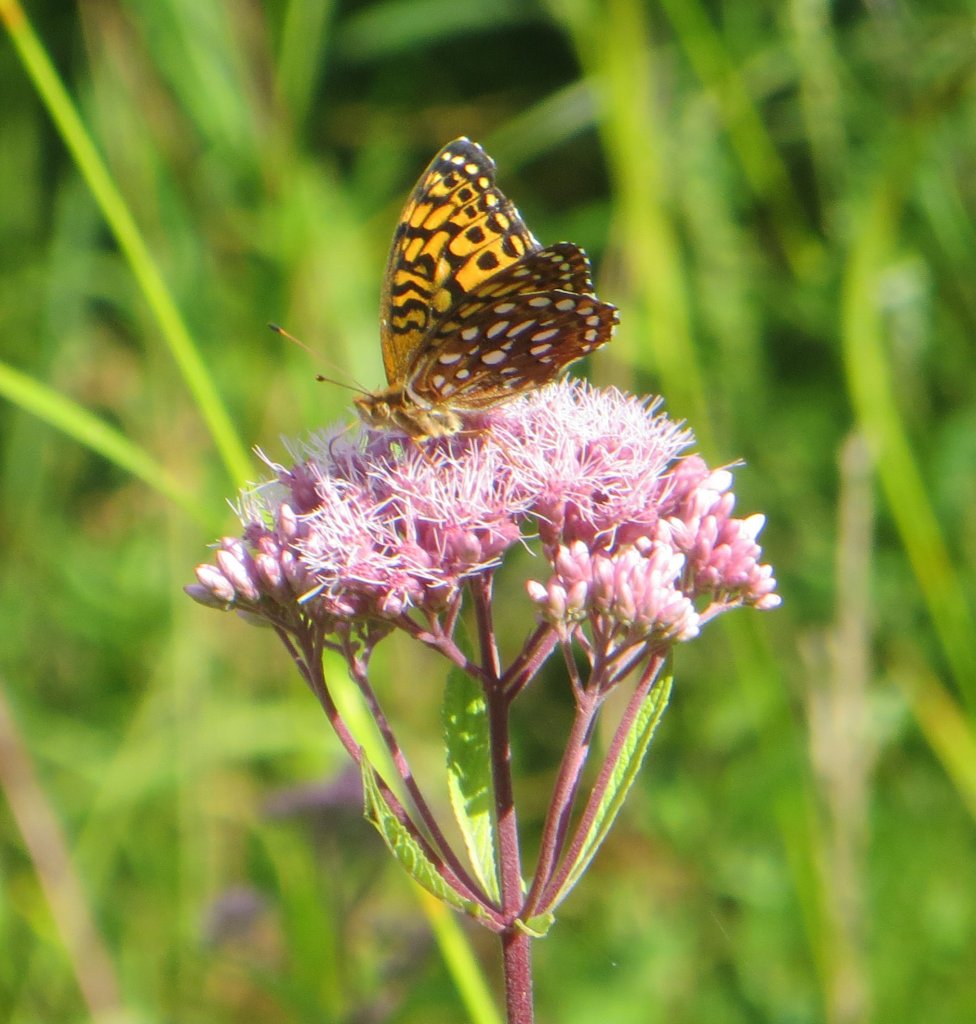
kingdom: Animalia
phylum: Arthropoda
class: Insecta
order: Lepidoptera
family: Nymphalidae
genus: Speyeria
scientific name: Speyeria aphrodite
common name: Aphrodite Fritillary
